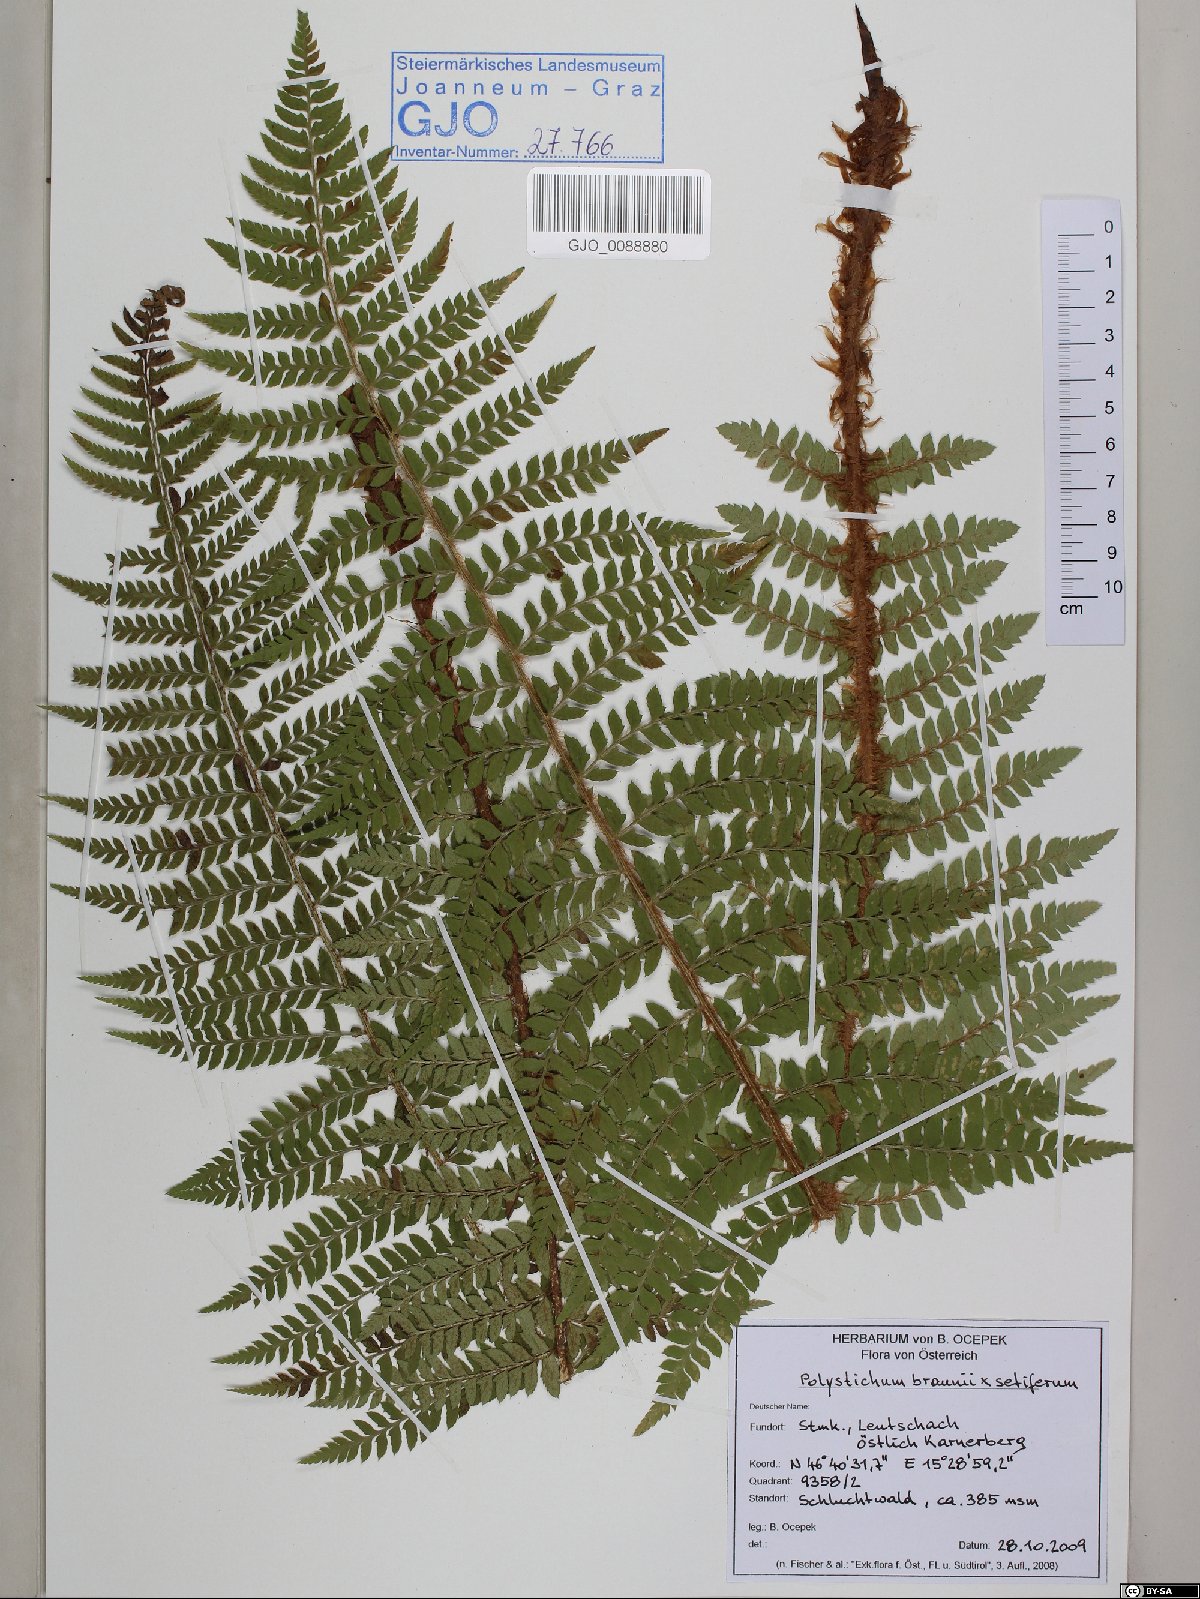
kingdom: Plantae
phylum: Tracheophyta
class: Polypodiopsida
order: Polypodiales
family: Dryopteridaceae
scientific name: Dryopteridaceae
